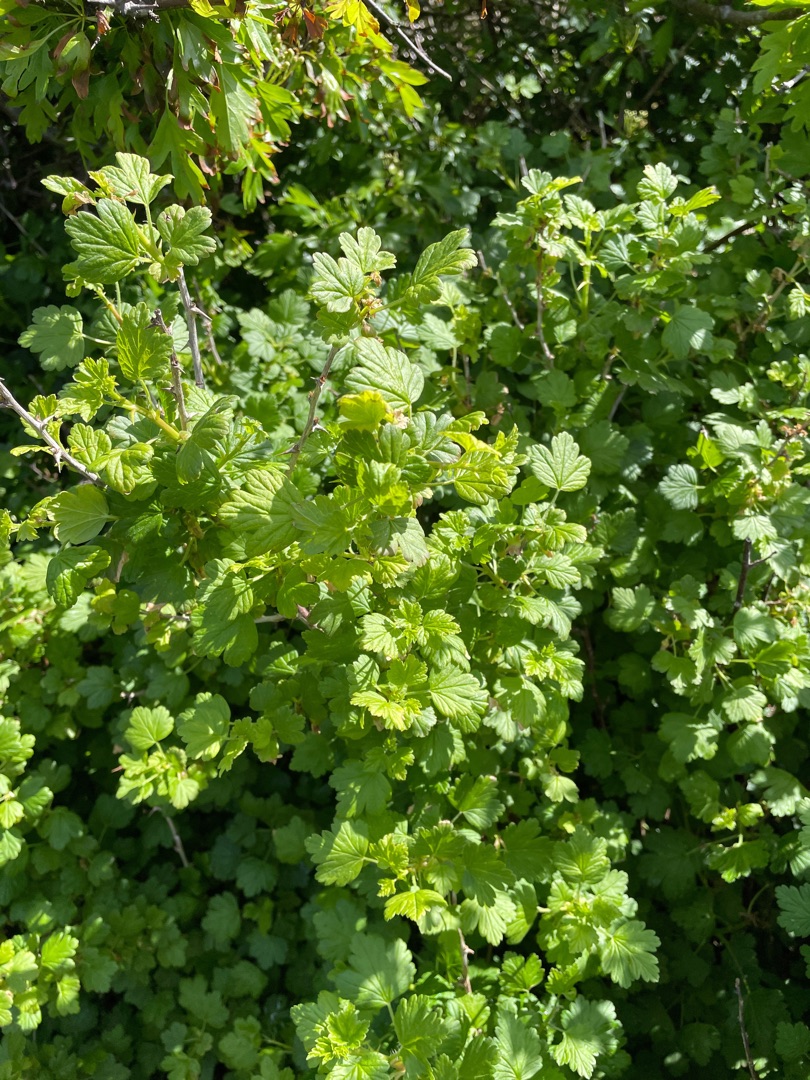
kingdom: Plantae
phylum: Tracheophyta
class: Magnoliopsida
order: Saxifragales
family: Grossulariaceae
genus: Ribes
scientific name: Ribes uva-crispa
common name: Stikkelsbær
